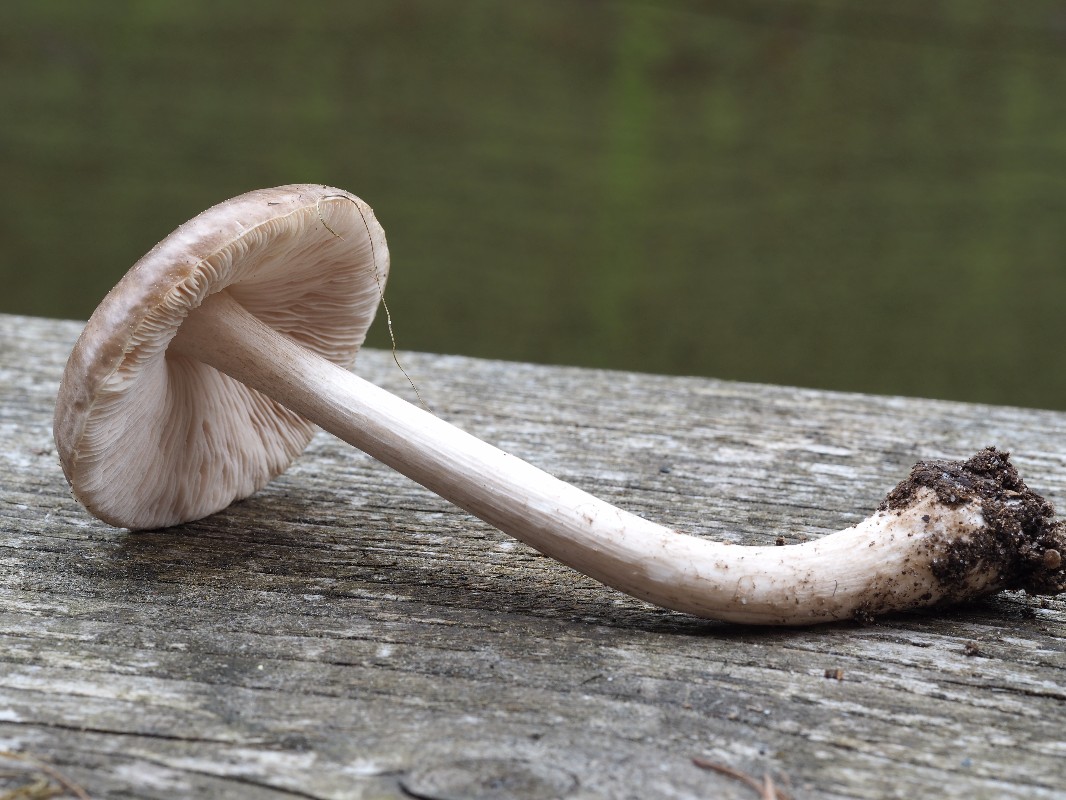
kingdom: Fungi
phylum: Basidiomycota
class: Agaricomycetes
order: Agaricales
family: Pluteaceae
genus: Pluteus
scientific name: Pluteus cervinus
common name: sodfarvet skærmhat
